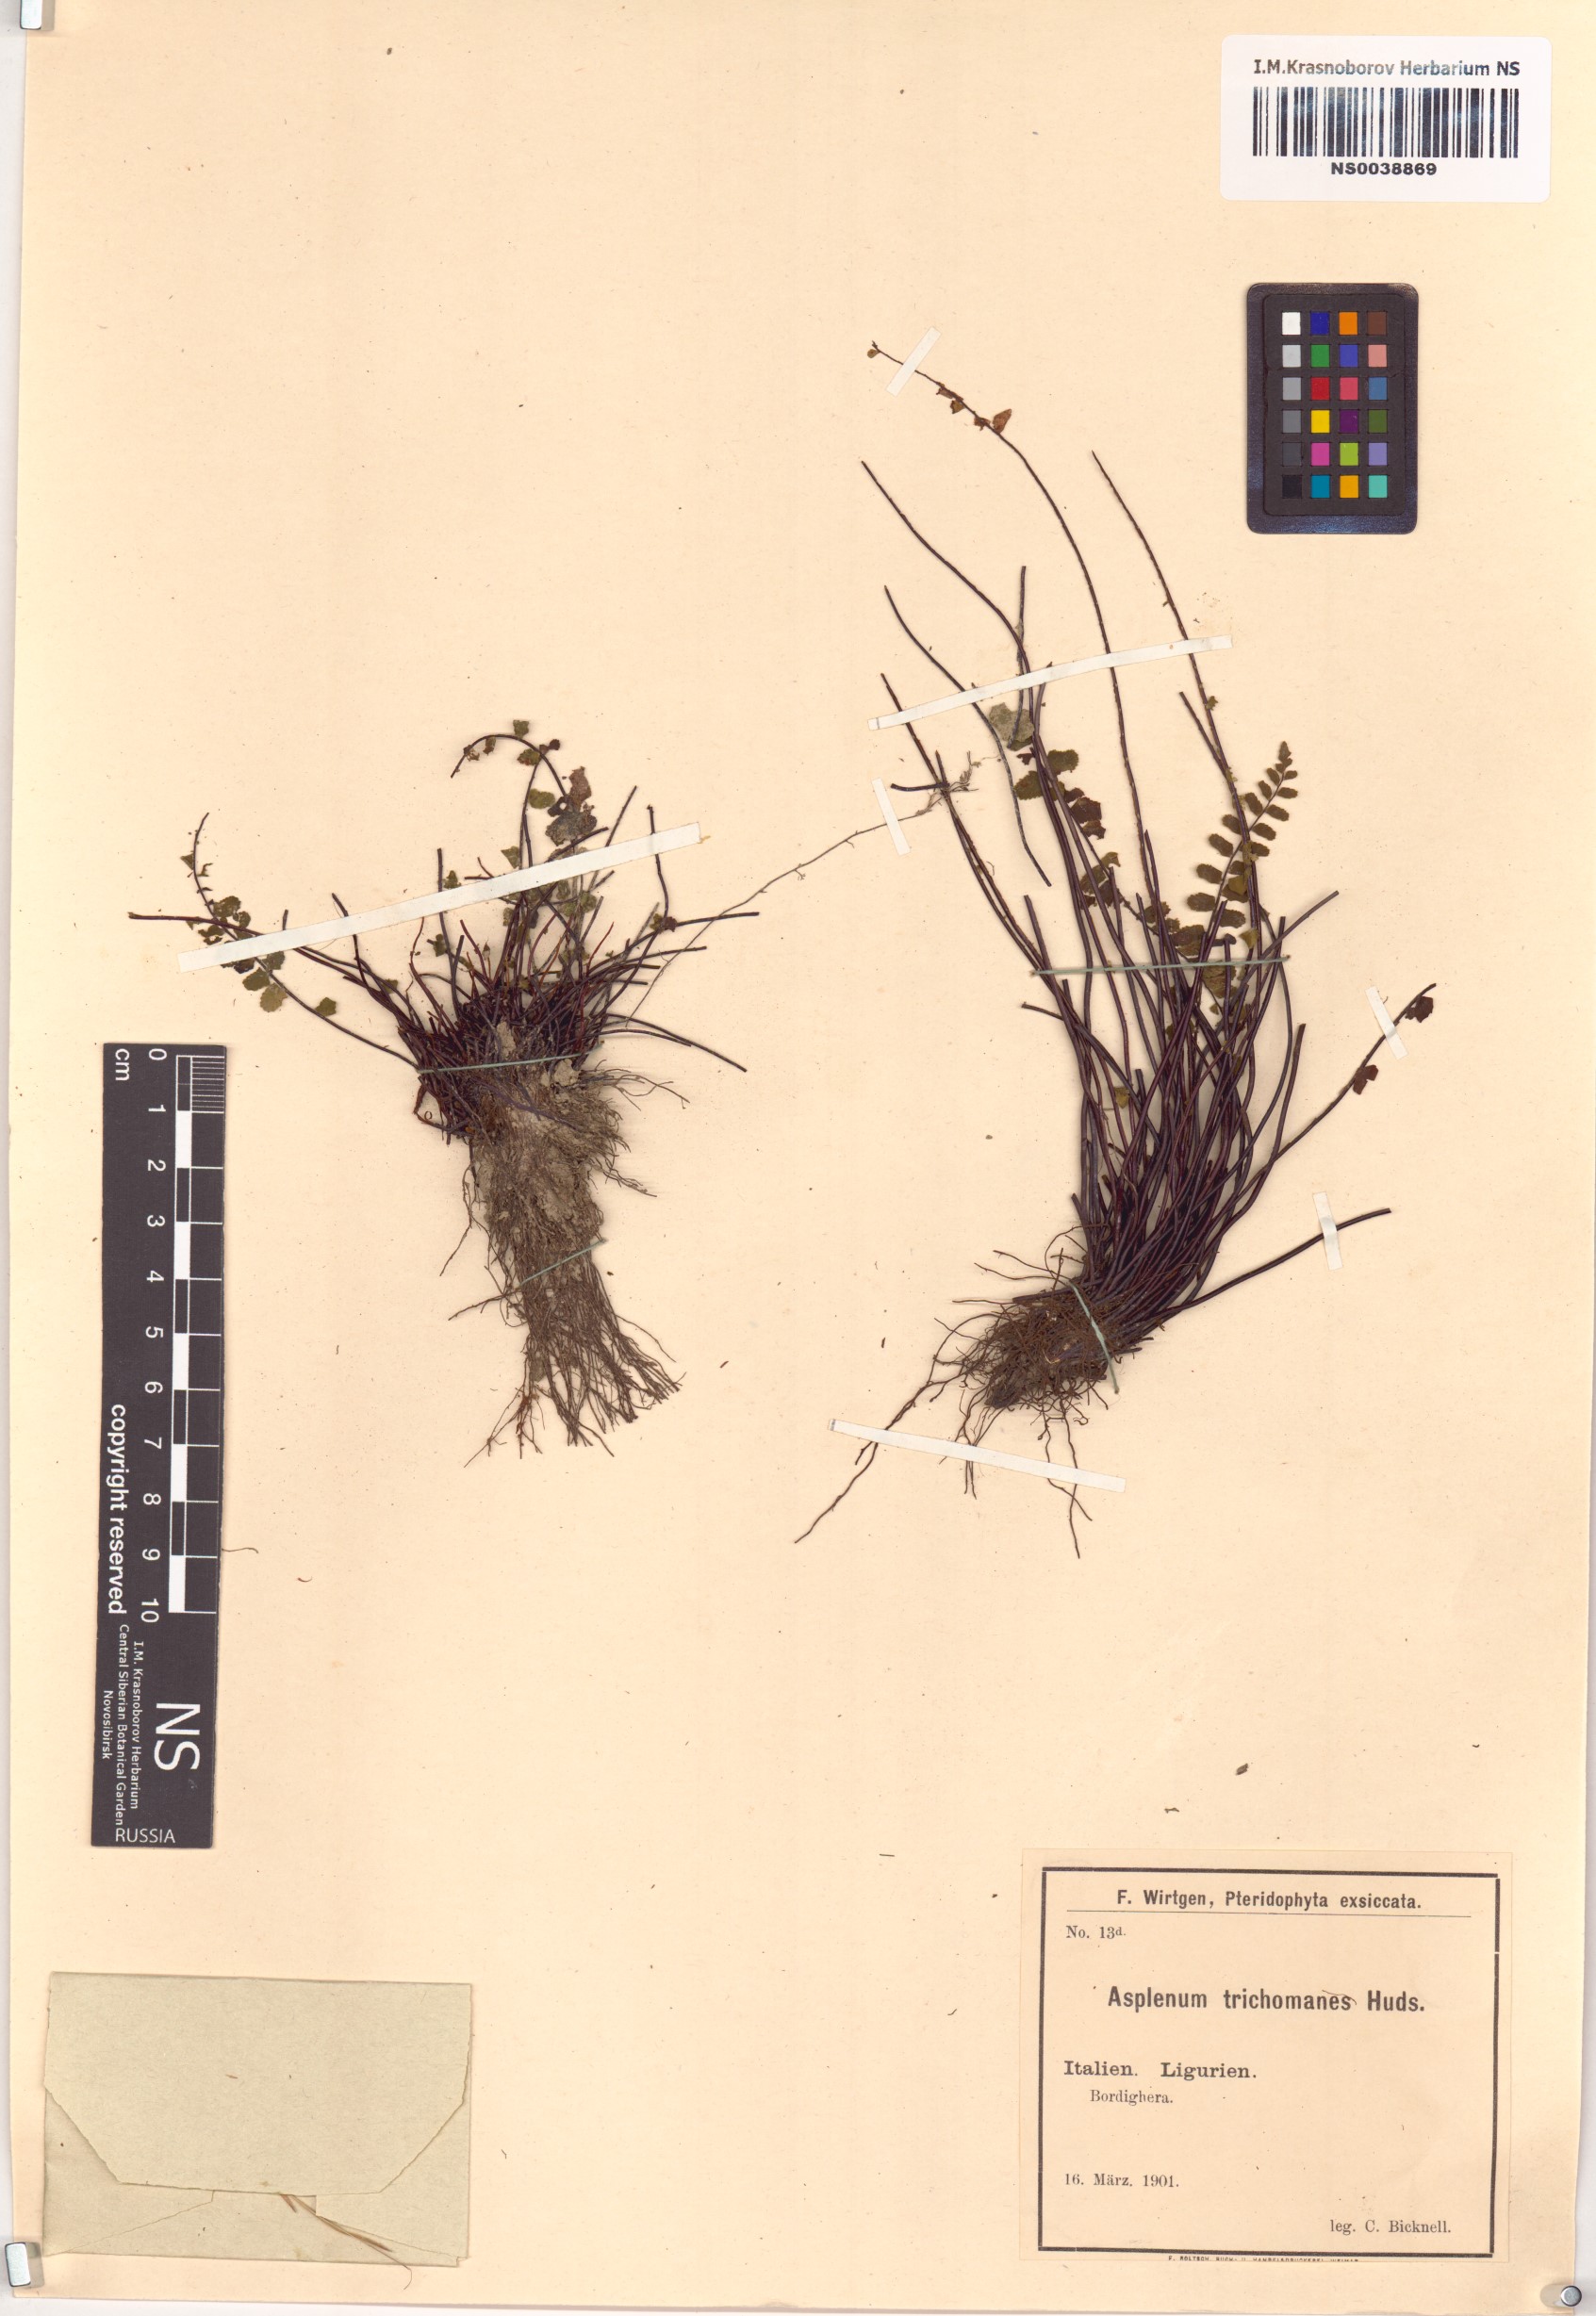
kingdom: Plantae
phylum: Tracheophyta
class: Polypodiopsida
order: Polypodiales
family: Aspleniaceae
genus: Asplenium
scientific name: Asplenium trichomanes
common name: Maidenhair spleenwort
